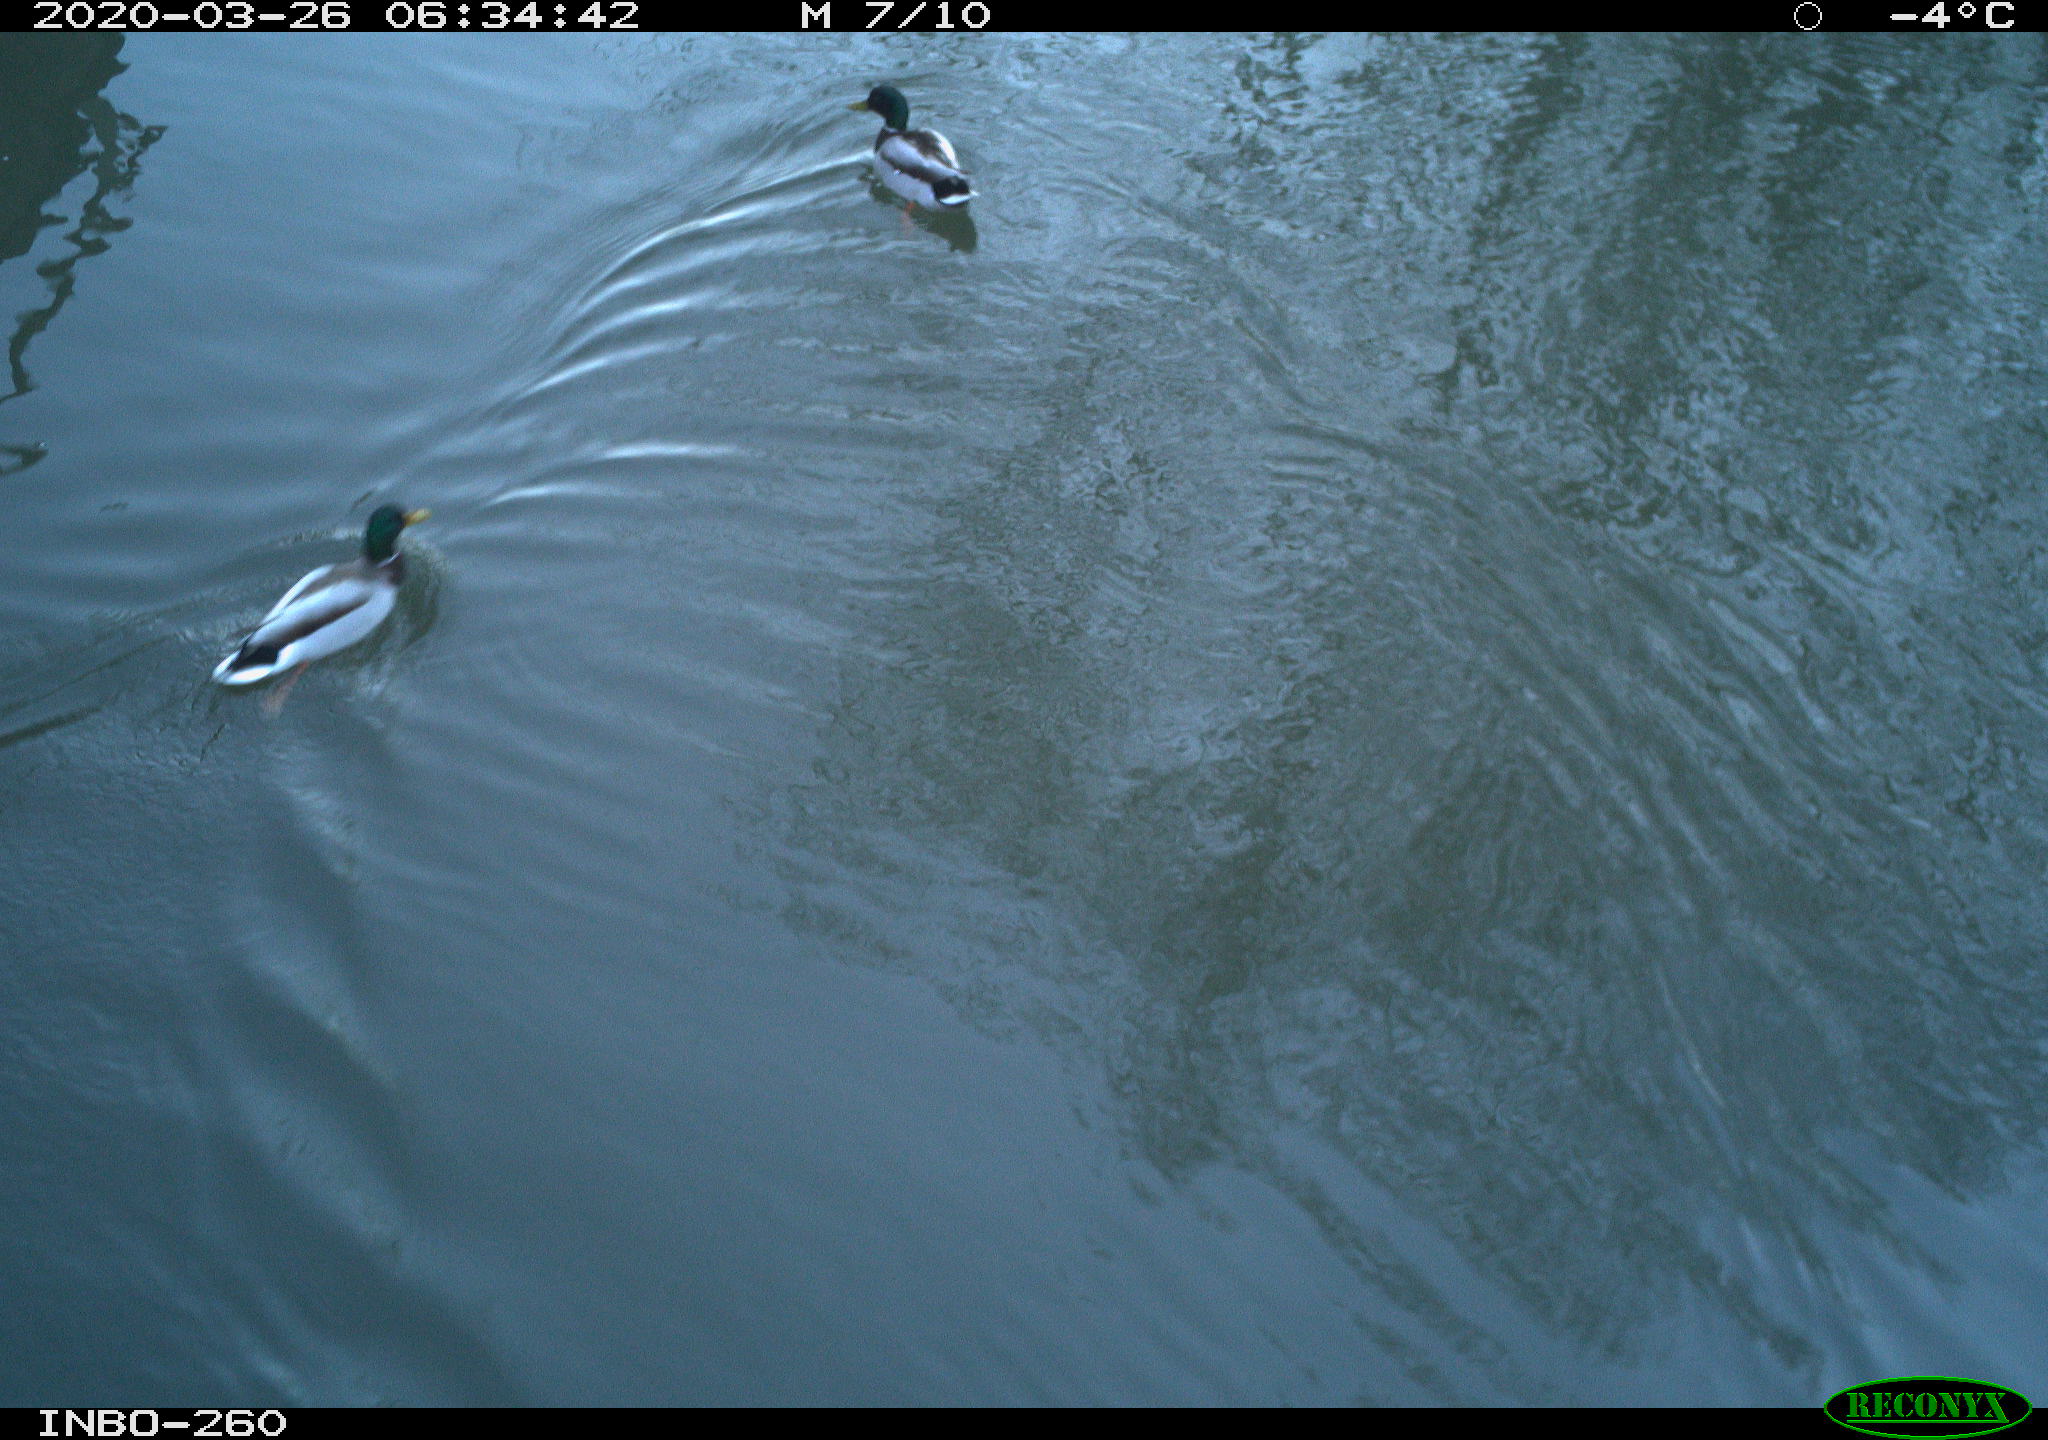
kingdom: Animalia
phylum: Chordata
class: Aves
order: Anseriformes
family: Anatidae
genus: Anas
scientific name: Anas platyrhynchos
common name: Mallard
